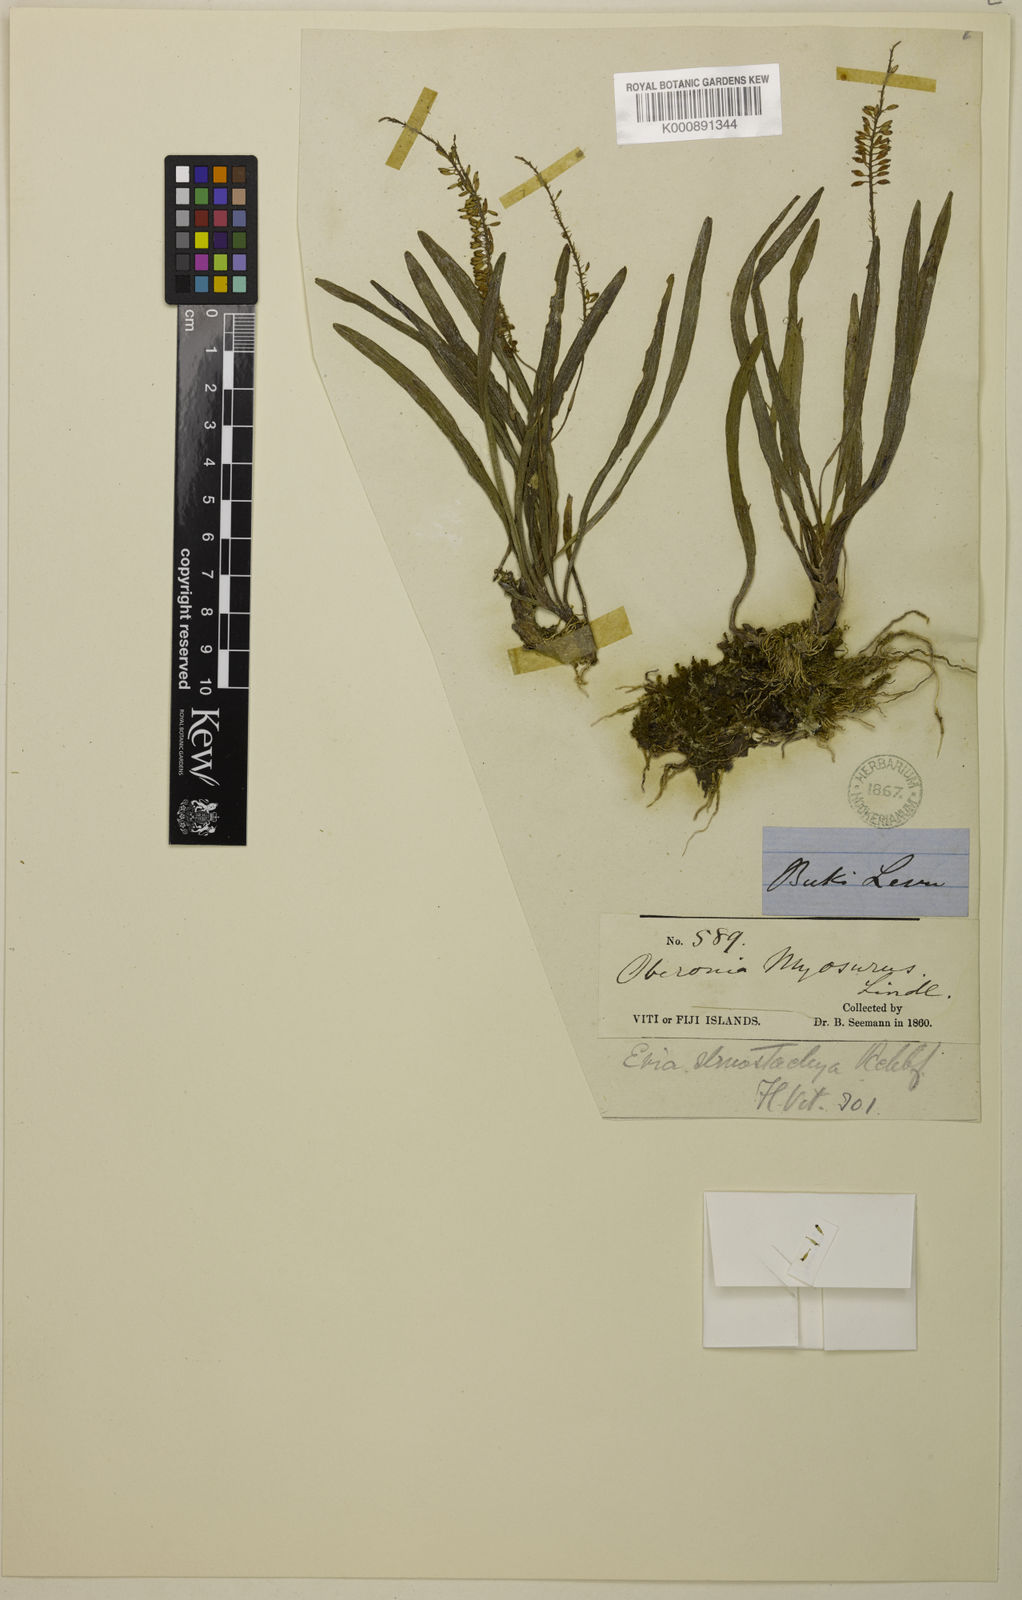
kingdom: Plantae
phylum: Tracheophyta
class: Liliopsida
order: Asparagales
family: Orchidaceae
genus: Phreatia
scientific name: Phreatia stenostachya
